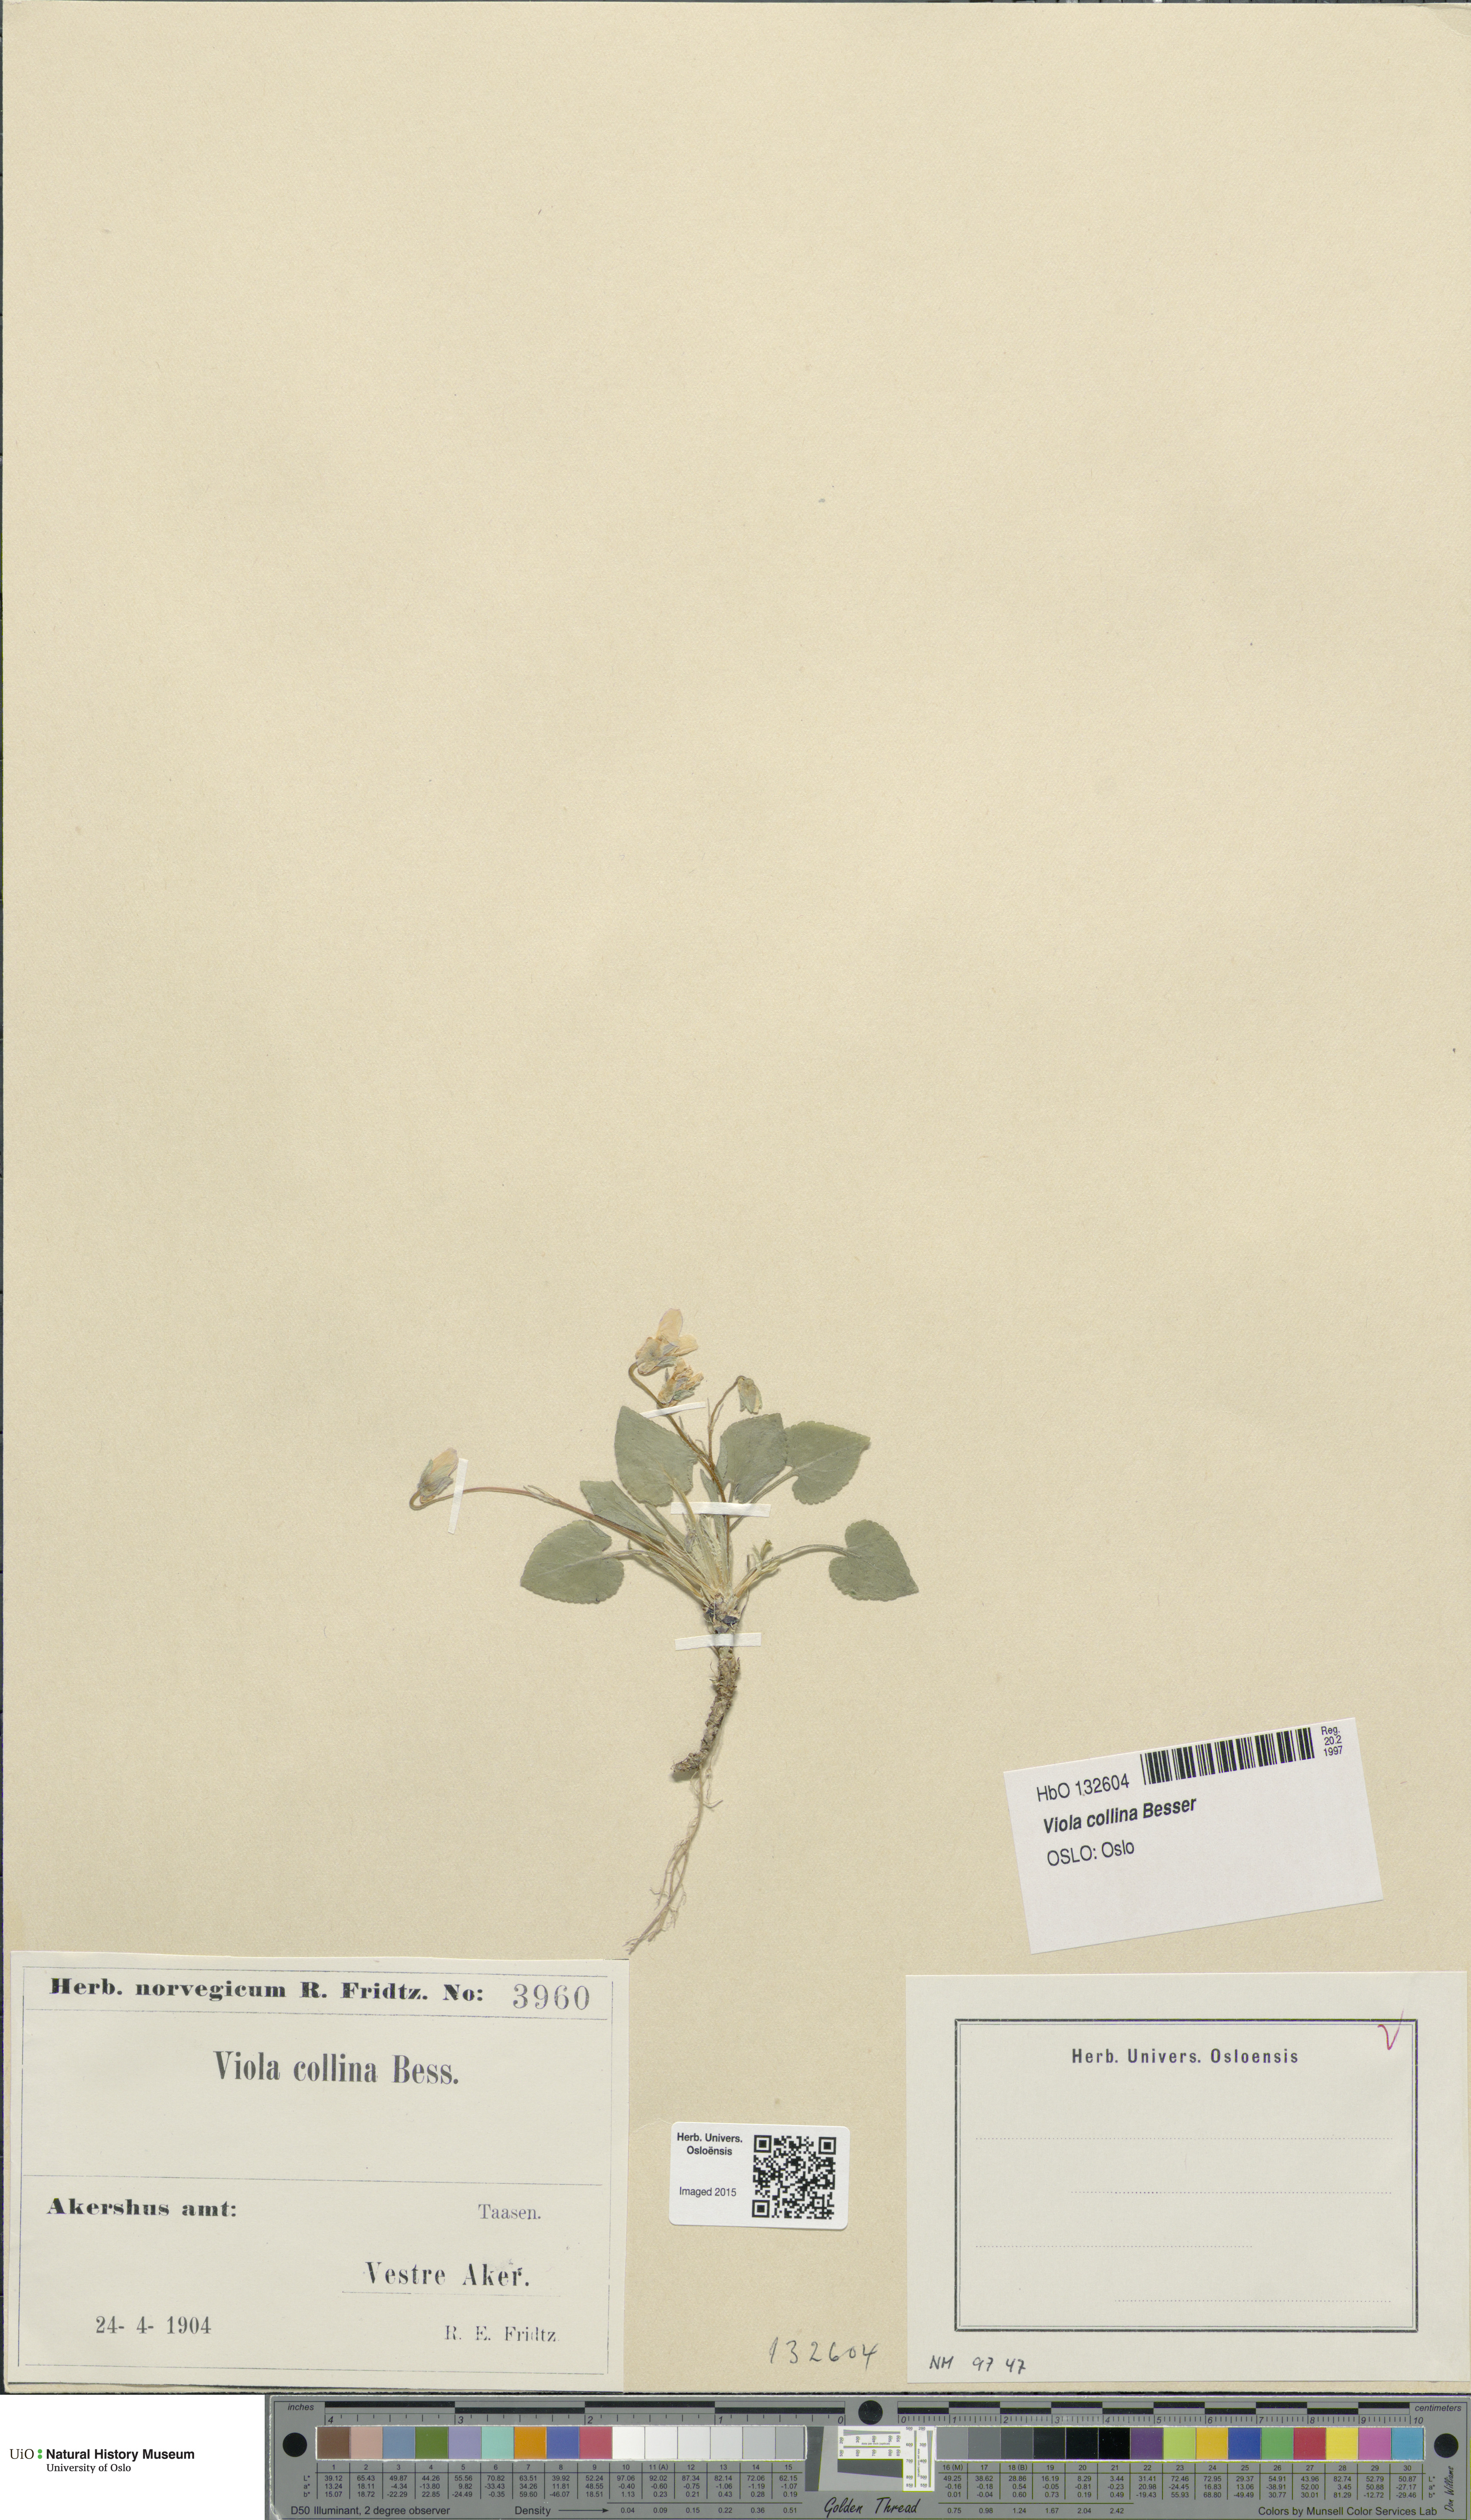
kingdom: Plantae
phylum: Tracheophyta
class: Magnoliopsida
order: Malpighiales
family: Violaceae
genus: Viola
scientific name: Viola collina
